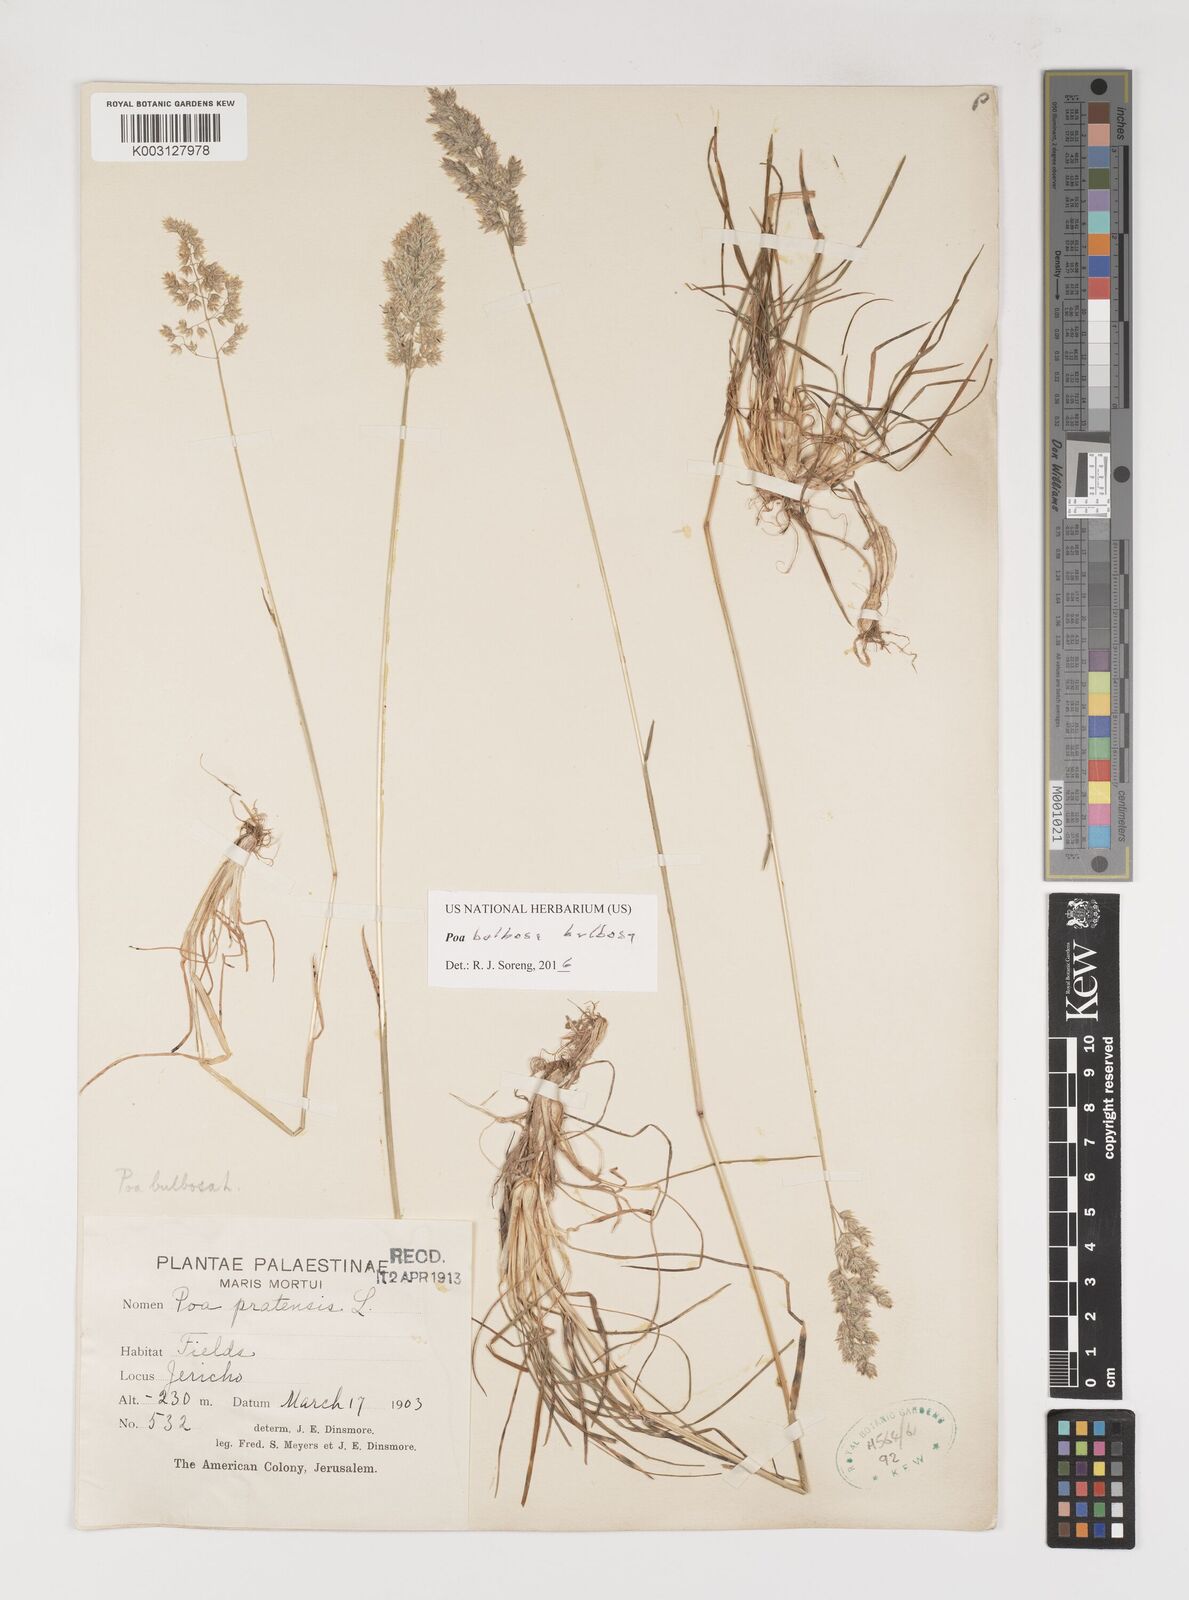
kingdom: Plantae
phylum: Tracheophyta
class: Liliopsida
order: Poales
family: Poaceae
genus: Poa
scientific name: Poa bulbosa
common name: Bulbous bluegrass
